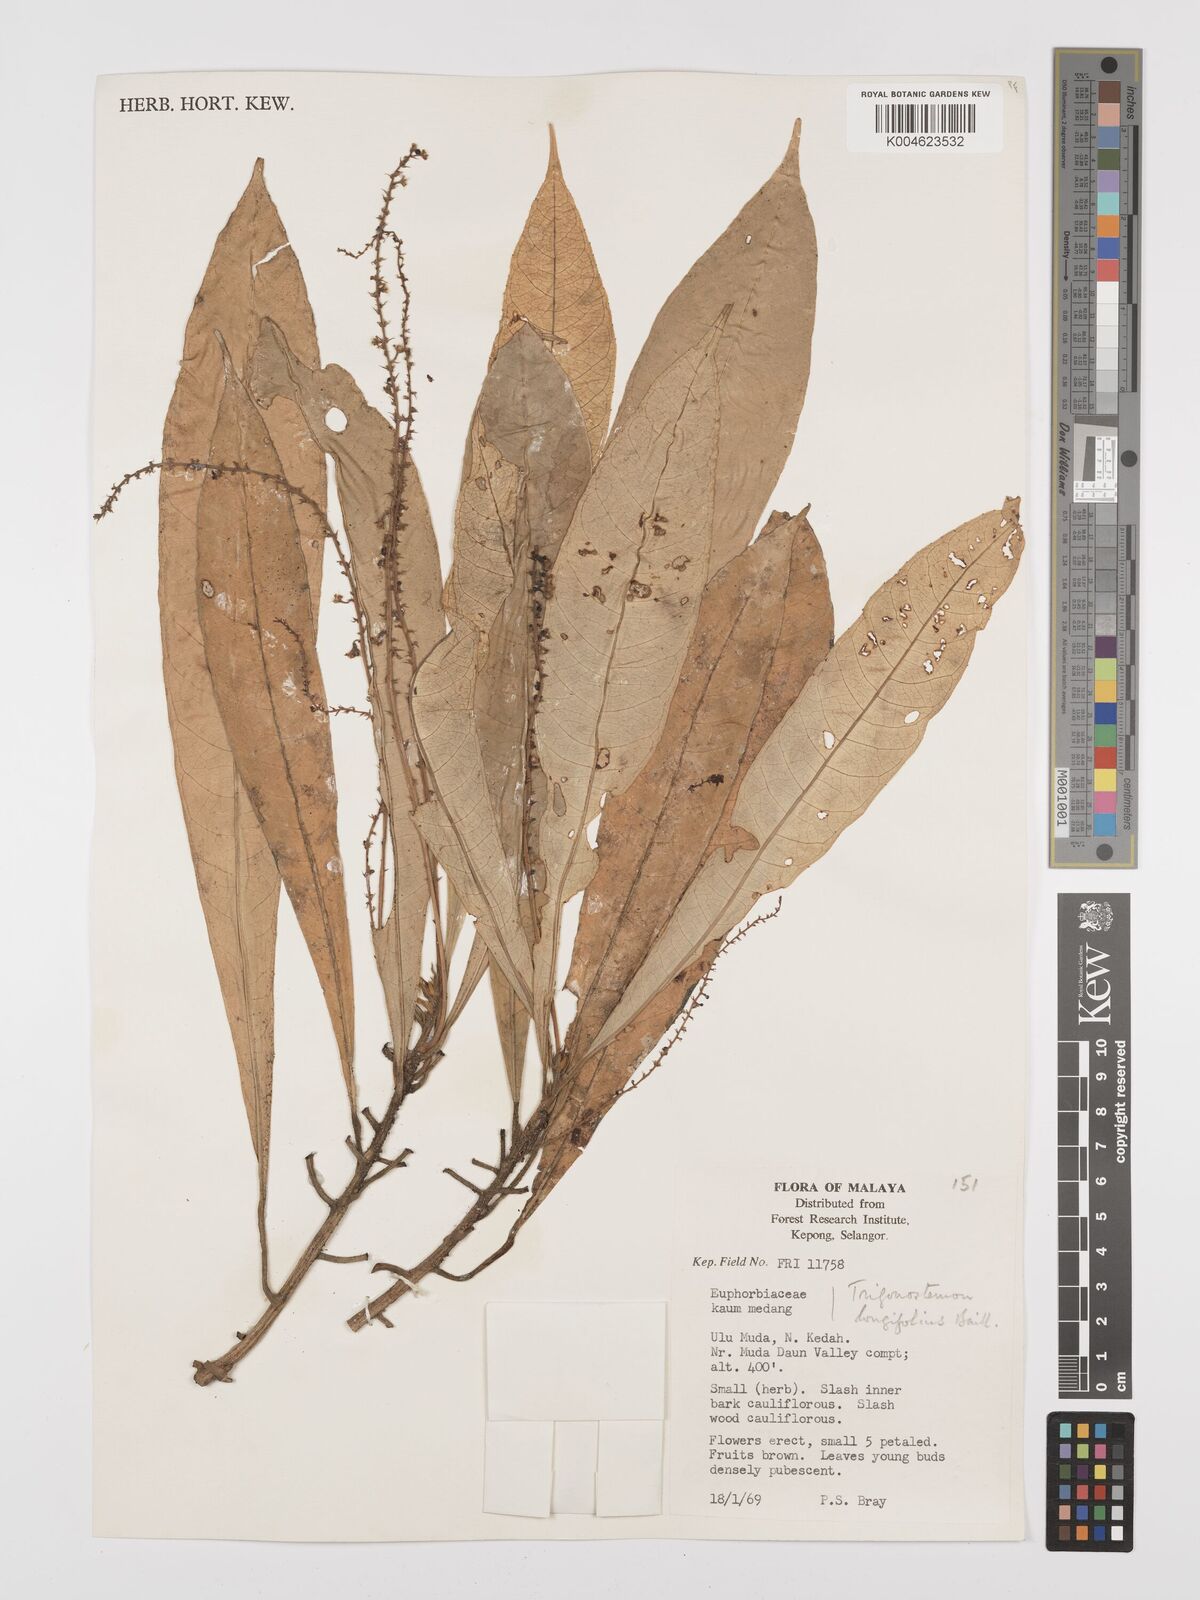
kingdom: Plantae
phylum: Tracheophyta
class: Magnoliopsida
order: Malpighiales
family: Euphorbiaceae
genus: Trigonostemon
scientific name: Trigonostemon longifolius
